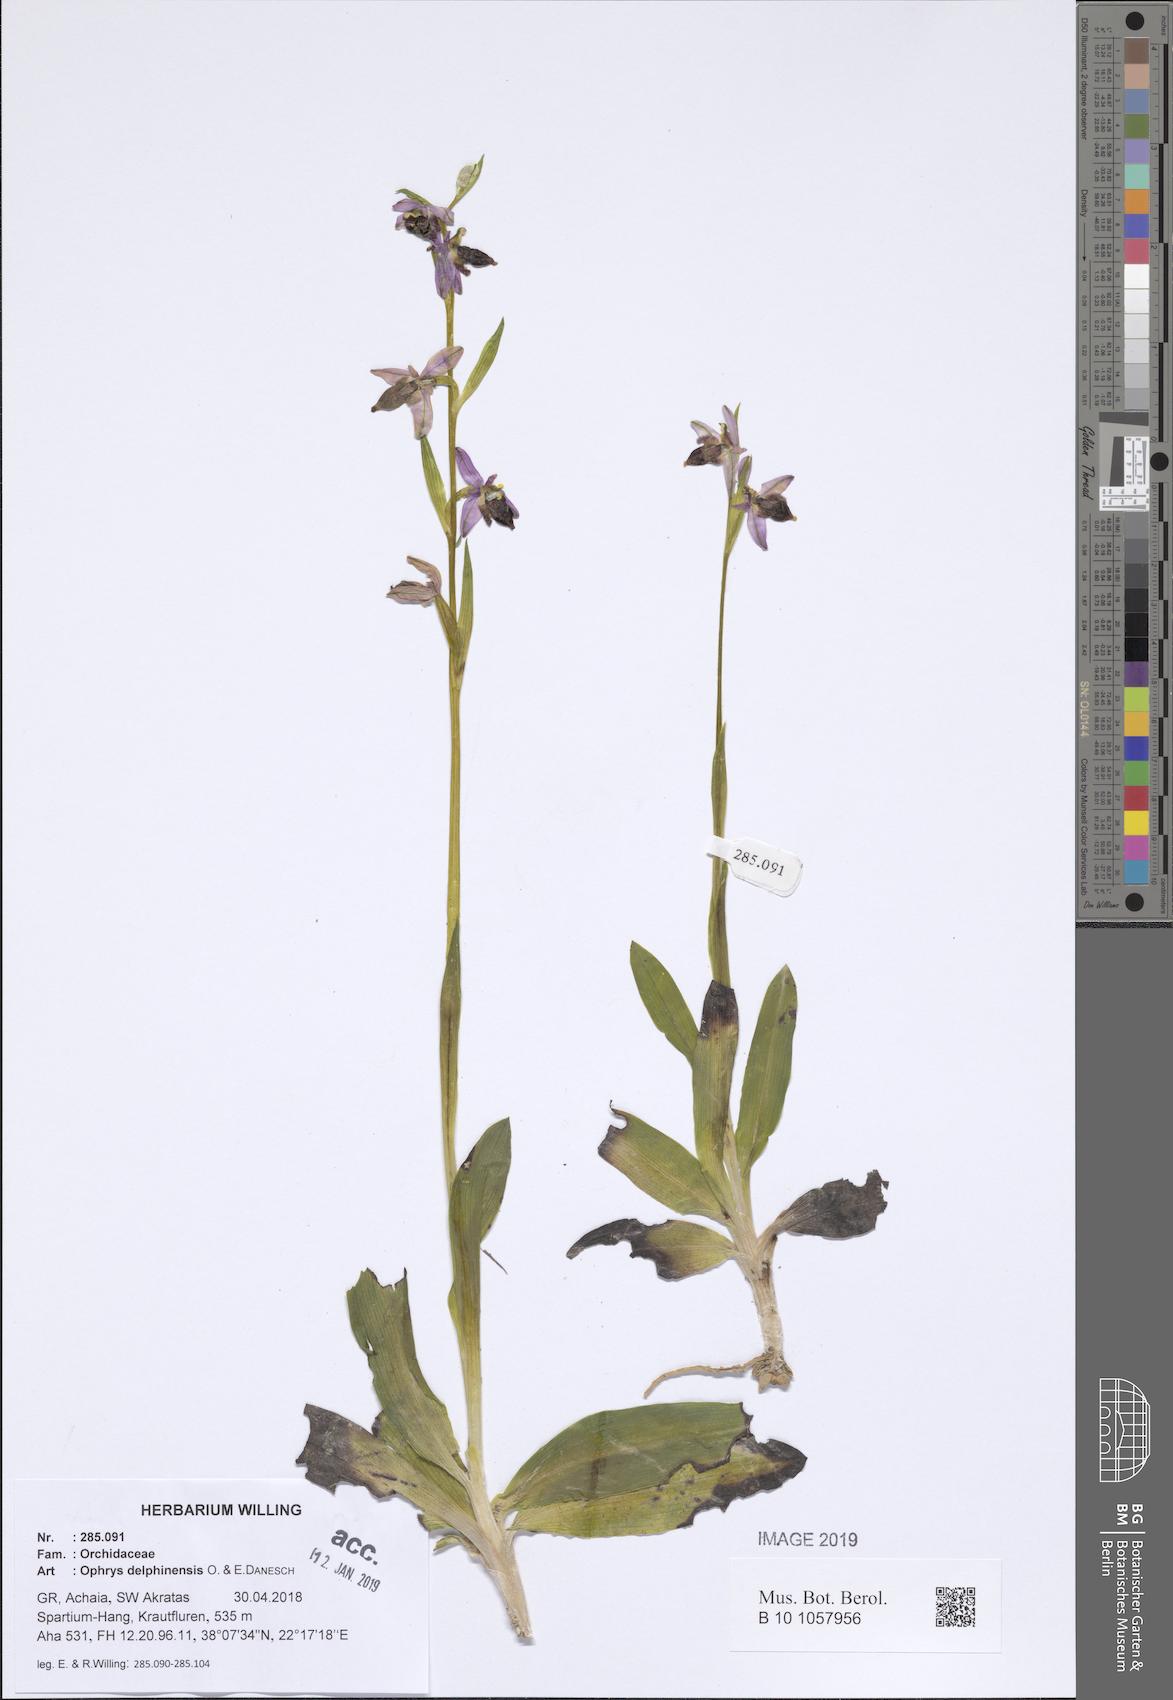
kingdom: Plantae
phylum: Tracheophyta
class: Liliopsida
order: Asparagales
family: Orchidaceae
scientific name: Orchidaceae
